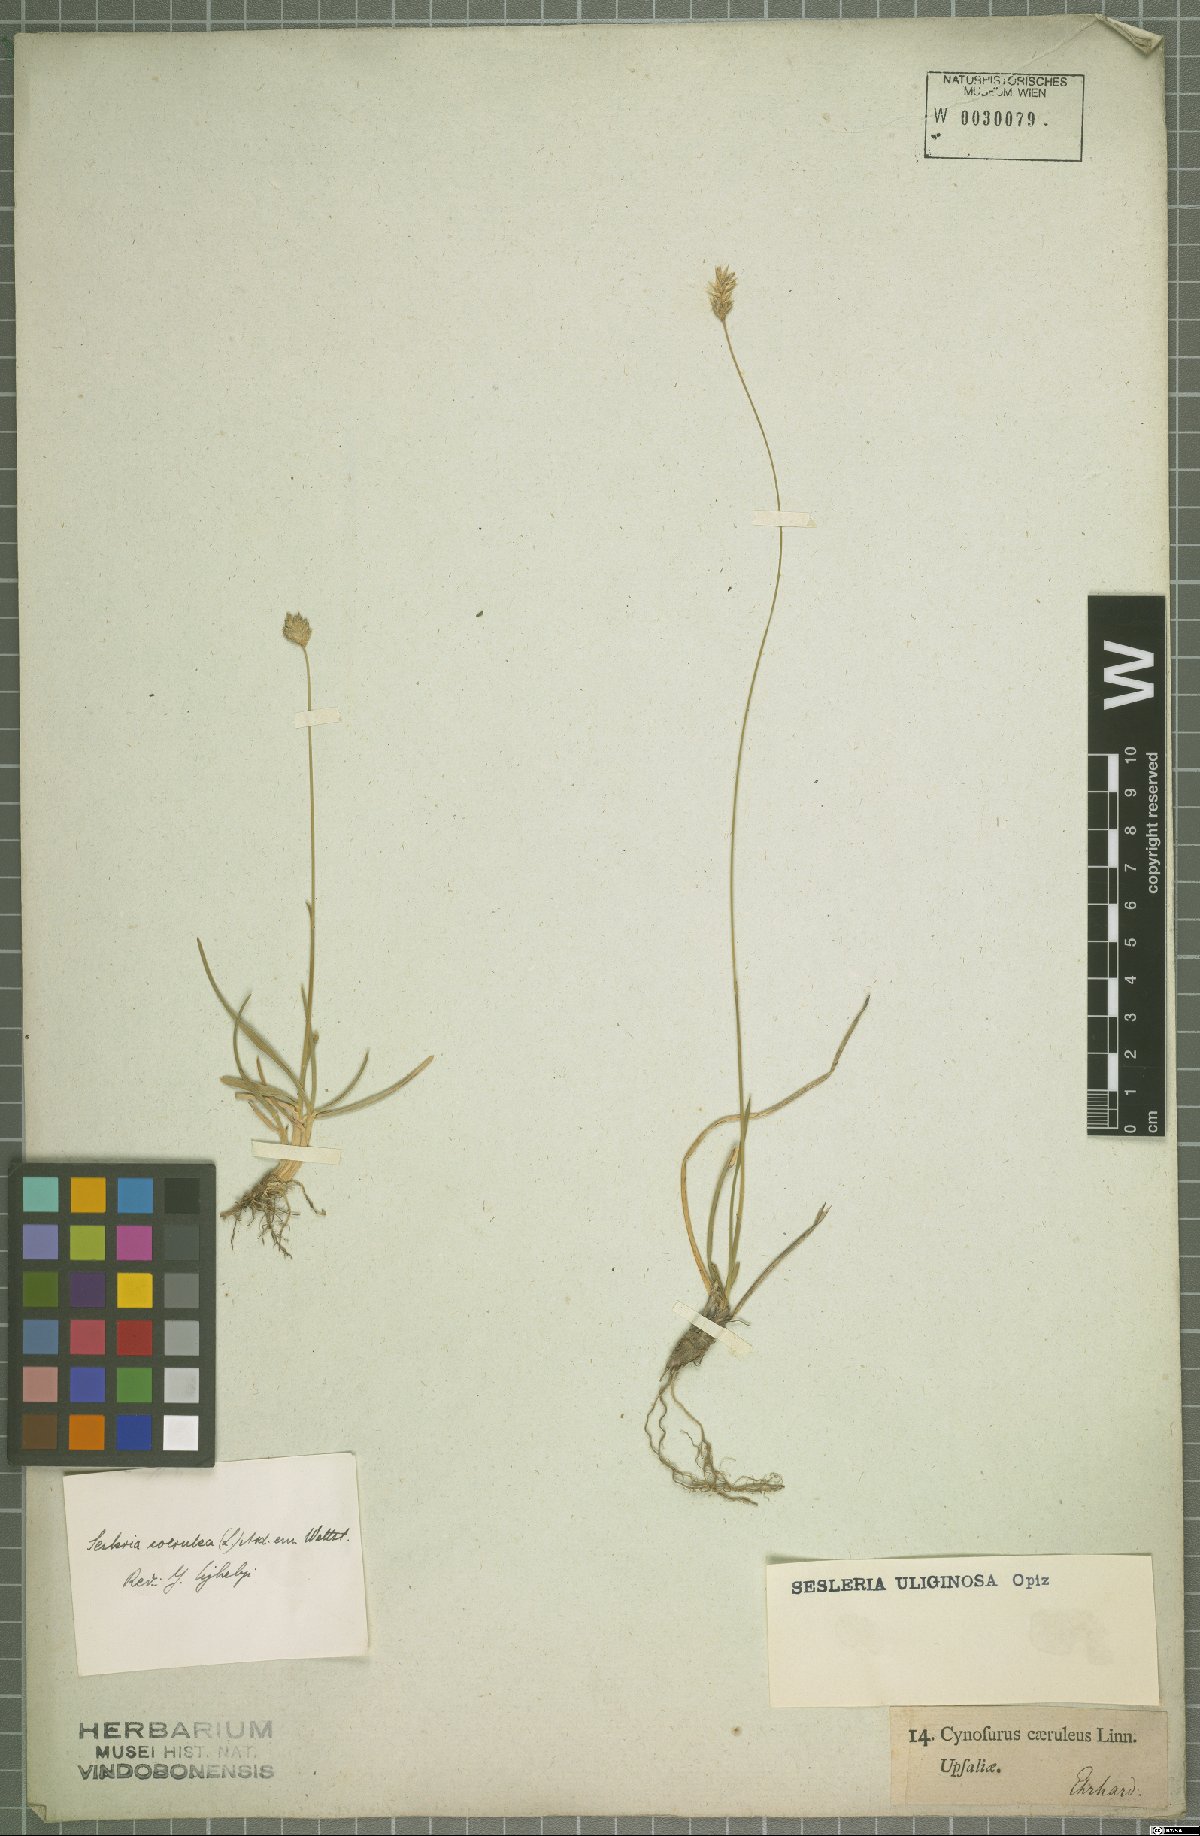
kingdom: Plantae
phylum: Tracheophyta
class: Liliopsida
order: Poales
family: Poaceae
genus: Sesleria
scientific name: Sesleria uliginosa
